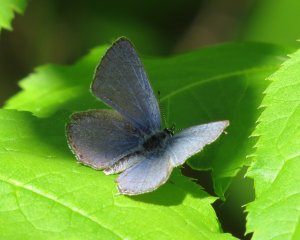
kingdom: Animalia
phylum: Arthropoda
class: Insecta
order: Lepidoptera
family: Lycaenidae
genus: Elkalyce
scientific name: Elkalyce amyntula
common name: Western Tailed-Blue
